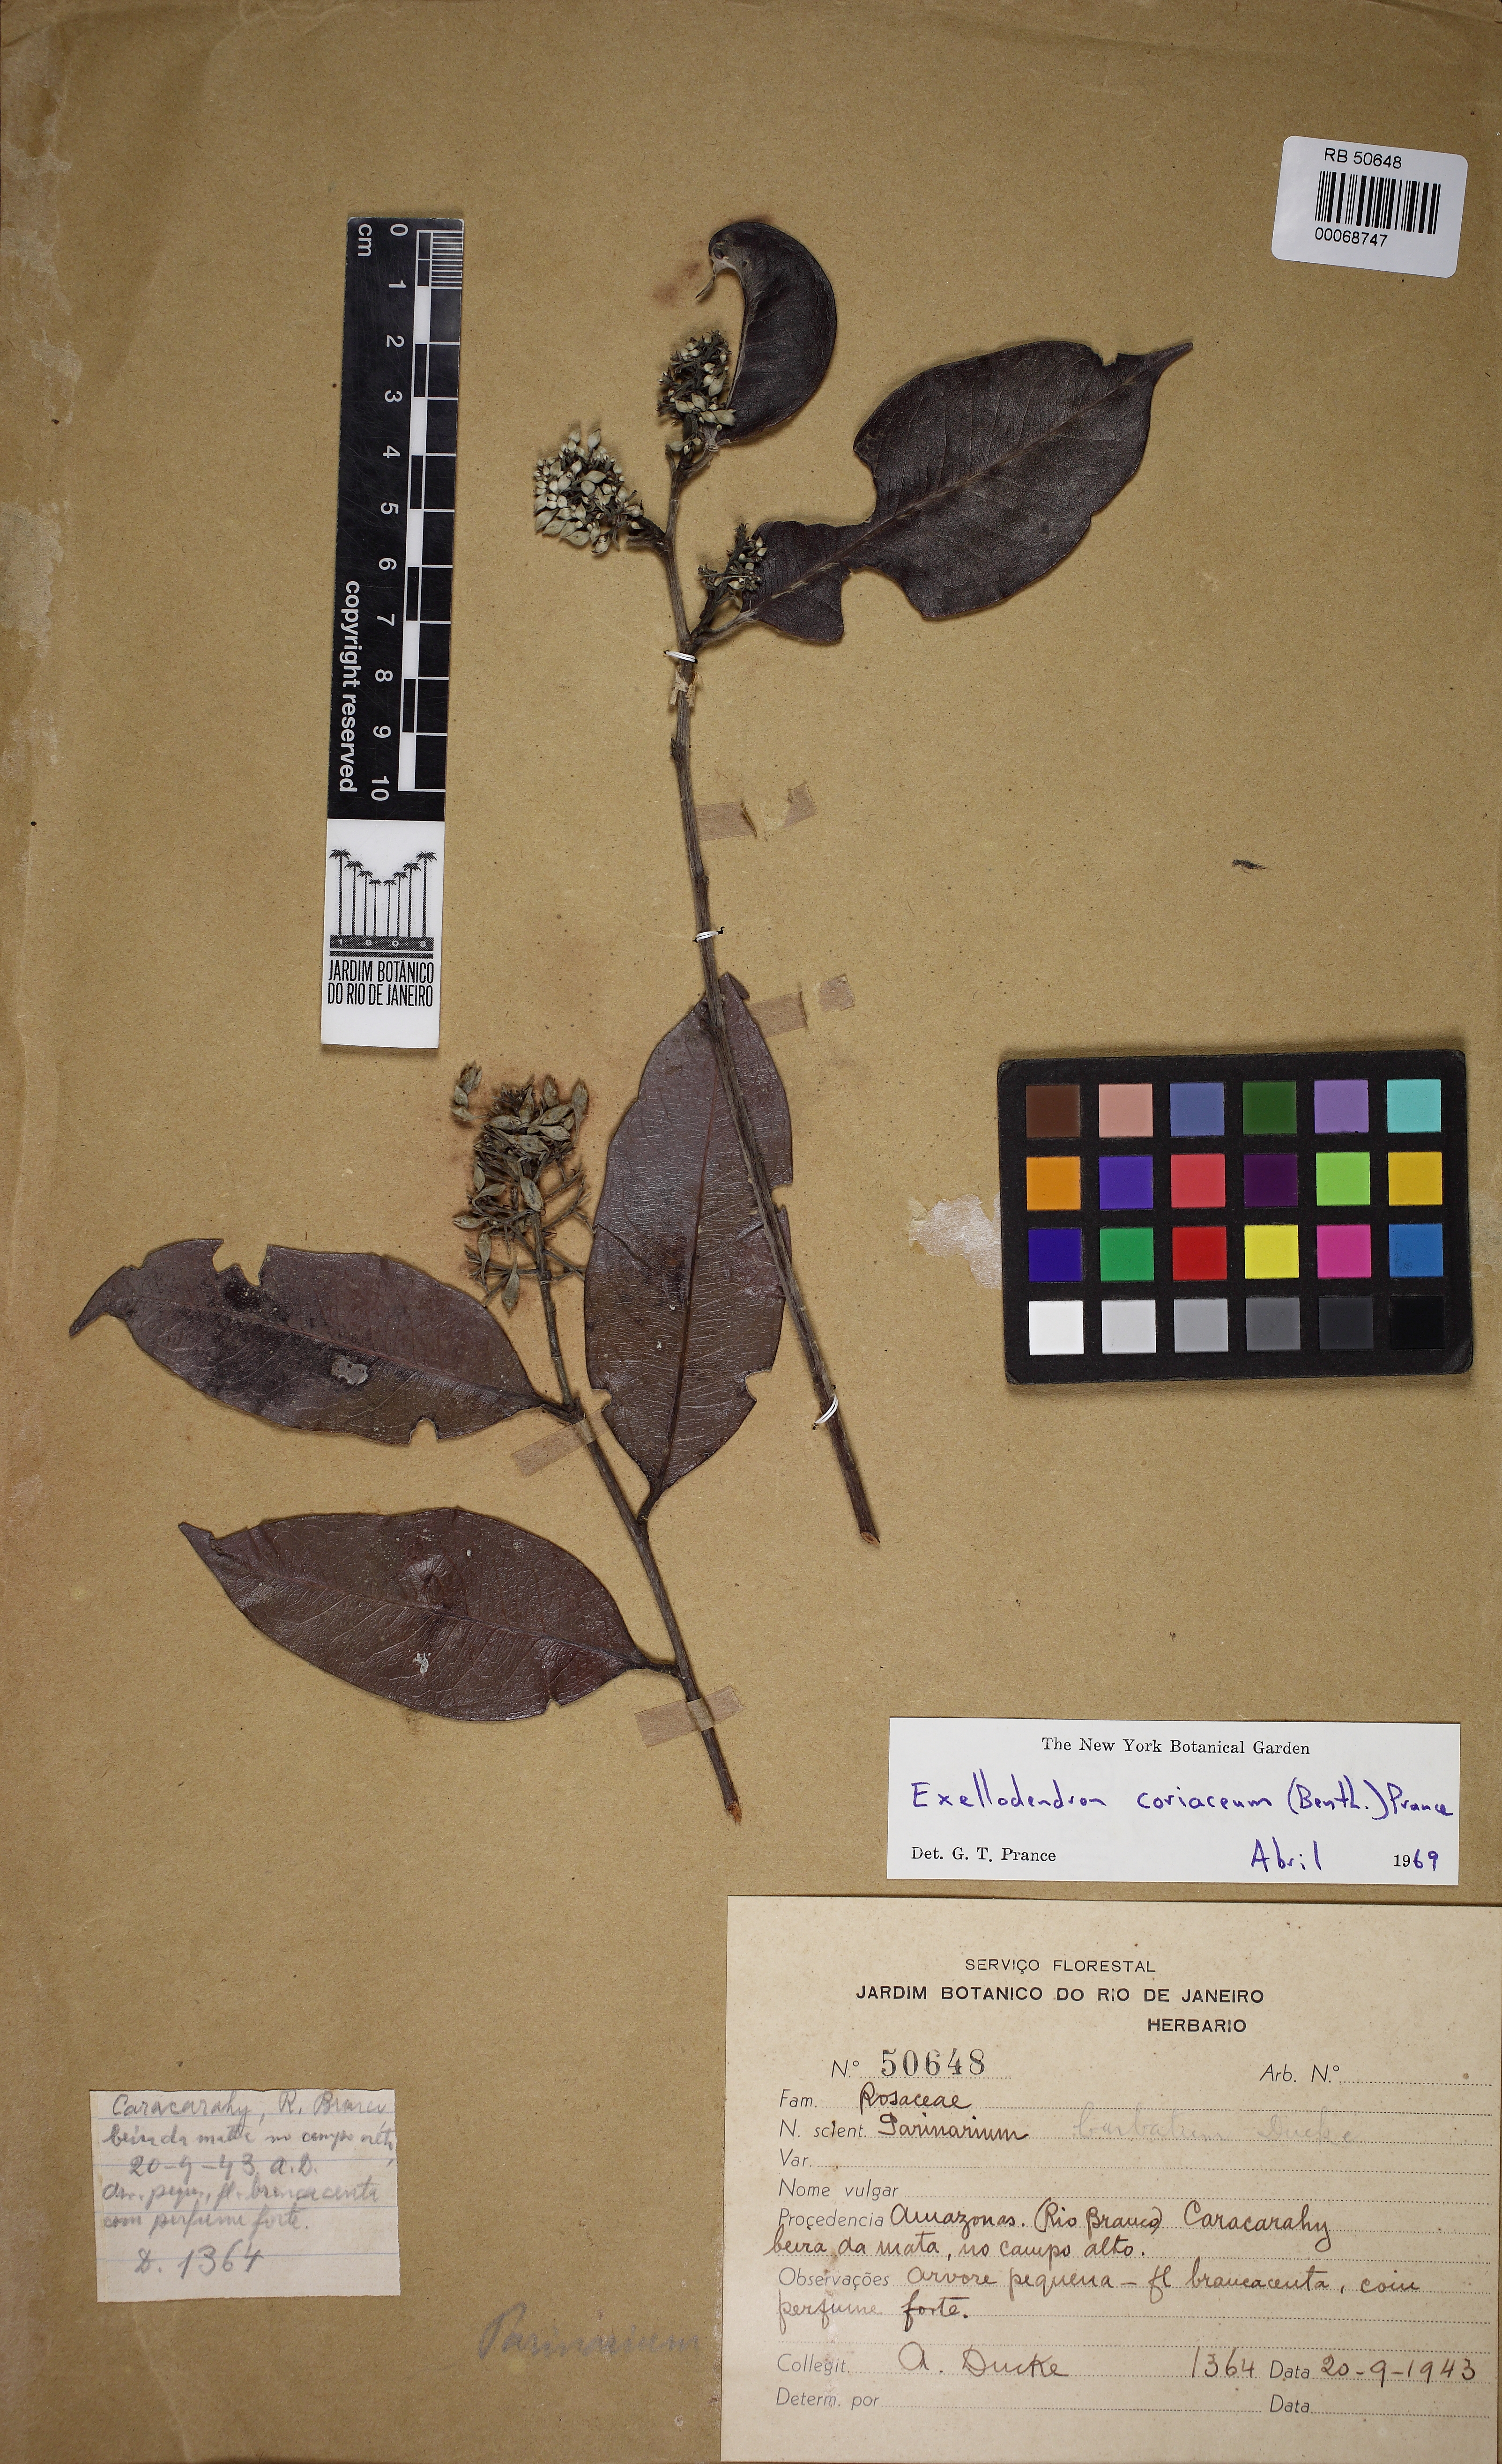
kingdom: Plantae
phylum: Tracheophyta
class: Magnoliopsida
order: Malpighiales
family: Chrysobalanaceae
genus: Exellodendron
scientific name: Exellodendron coriaceum
